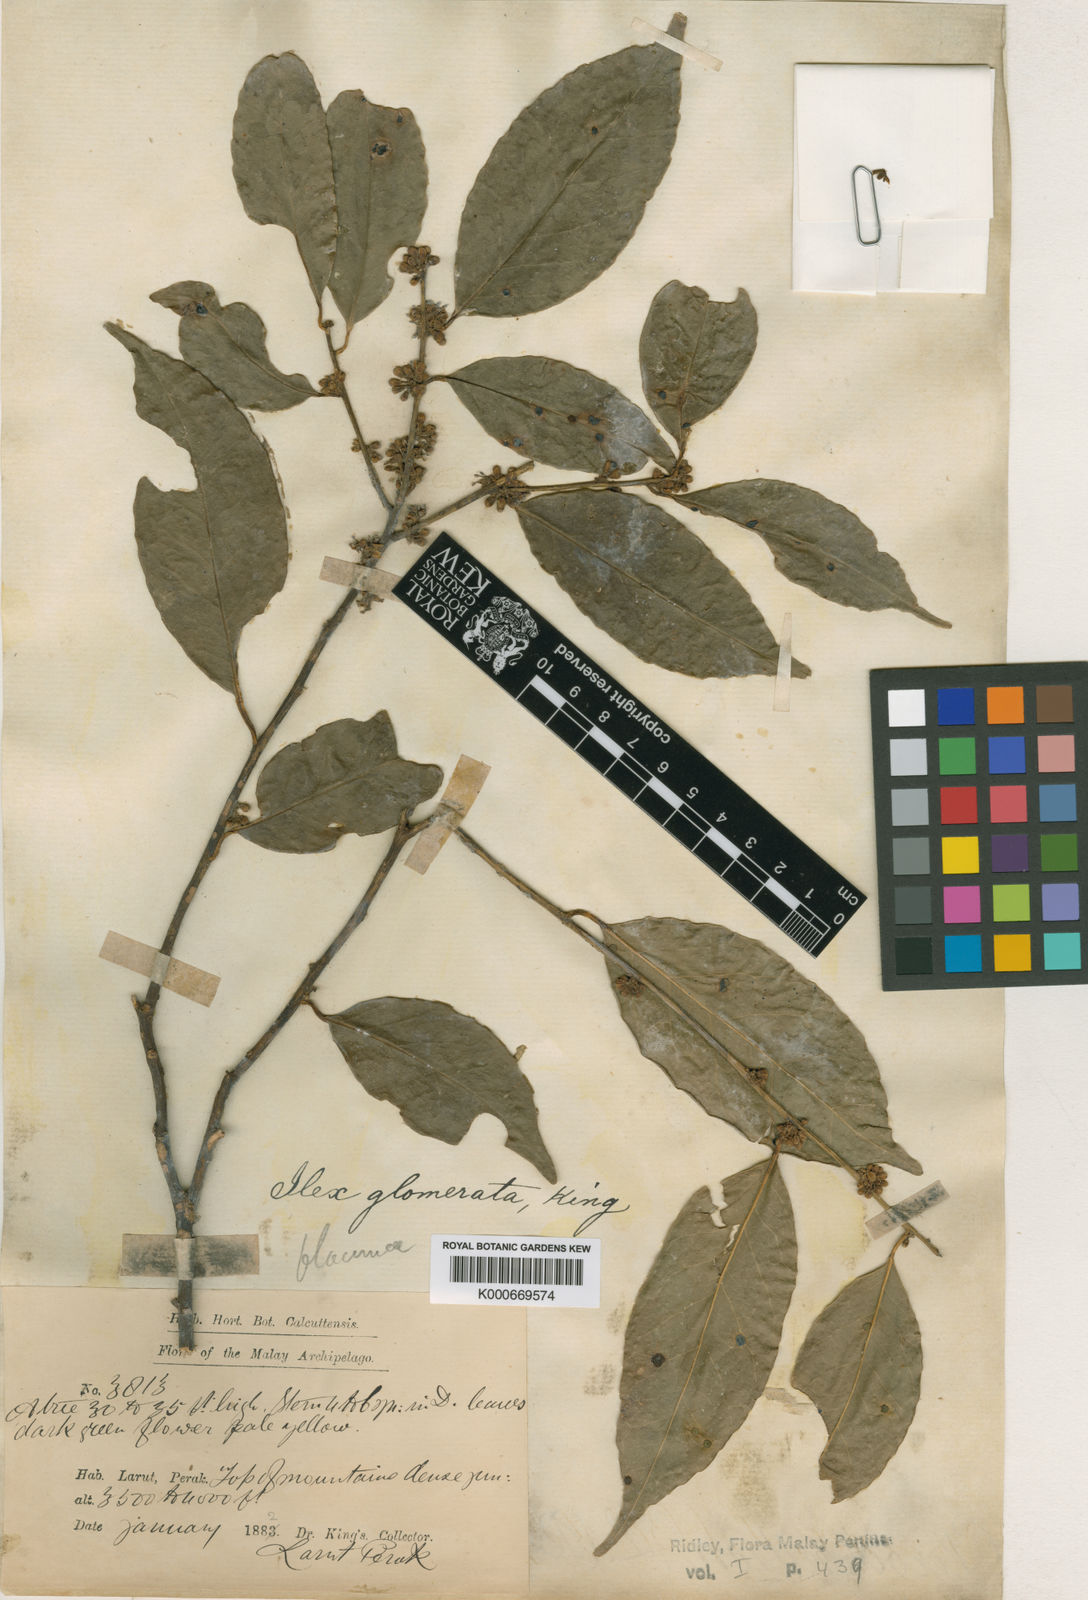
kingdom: Plantae
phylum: Tracheophyta
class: Magnoliopsida
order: Aquifoliales
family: Aquifoliaceae
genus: Ilex
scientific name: Ilex glomerata
